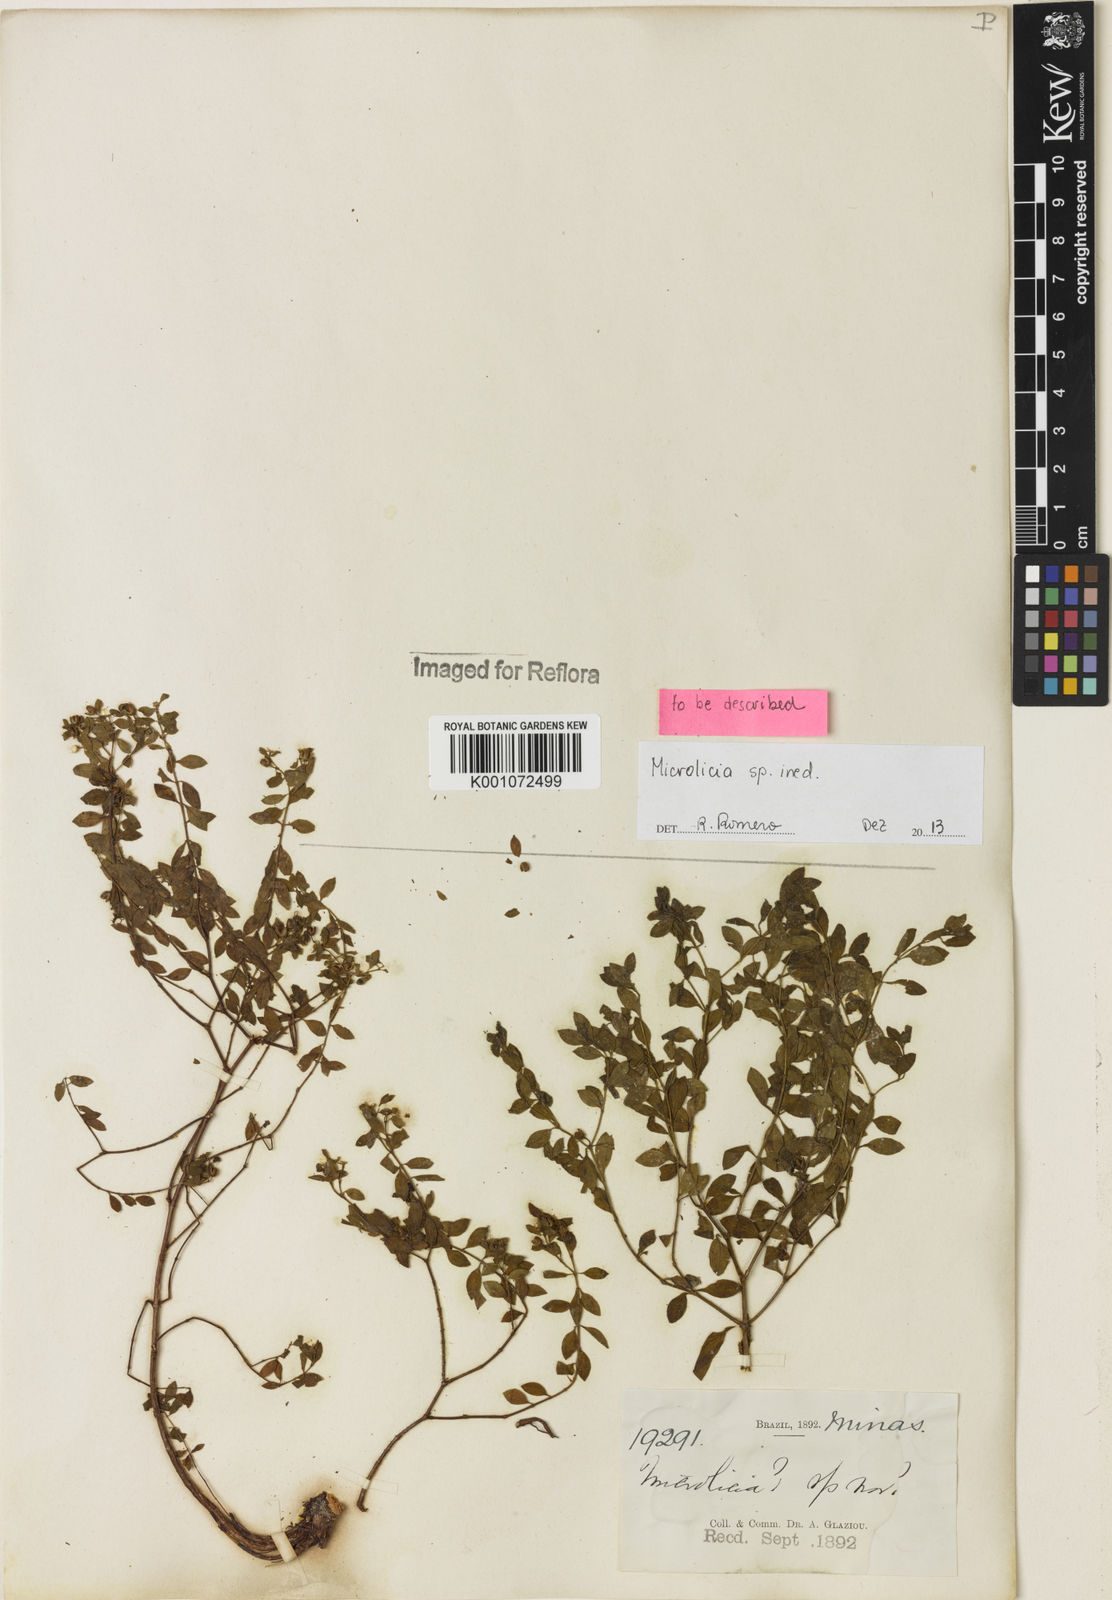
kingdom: Plantae
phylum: Tracheophyta
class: Magnoliopsida
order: Myrtales
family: Melastomataceae
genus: Microlicia
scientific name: Microlicia
